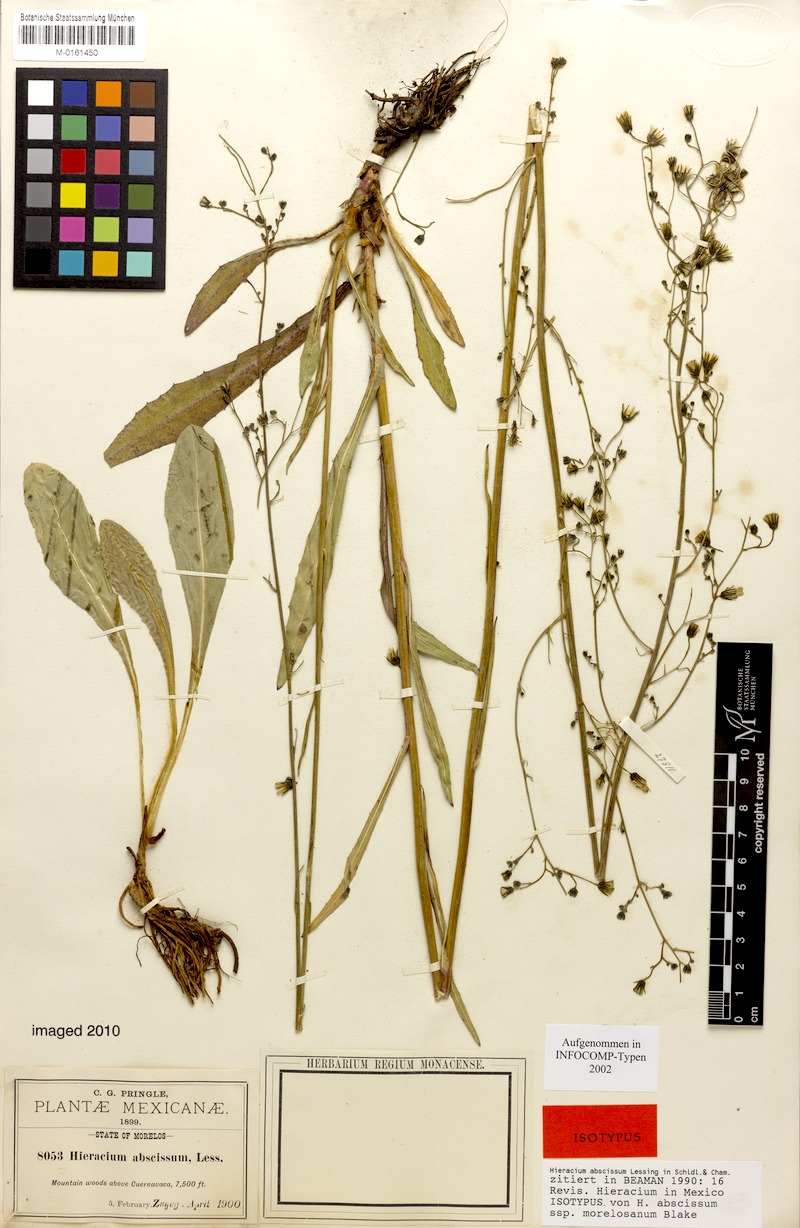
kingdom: Plantae
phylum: Tracheophyta
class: Magnoliopsida
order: Asterales
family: Asteraceae
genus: Hieracium
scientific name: Hieracium abscissum
